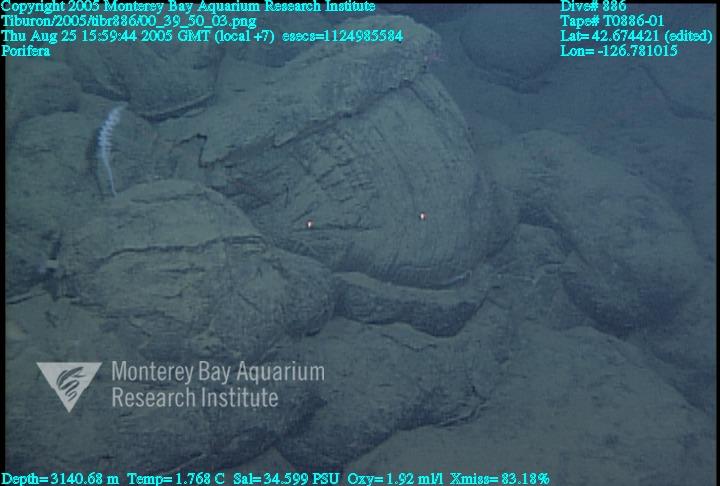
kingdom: Animalia
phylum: Porifera
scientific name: Porifera
